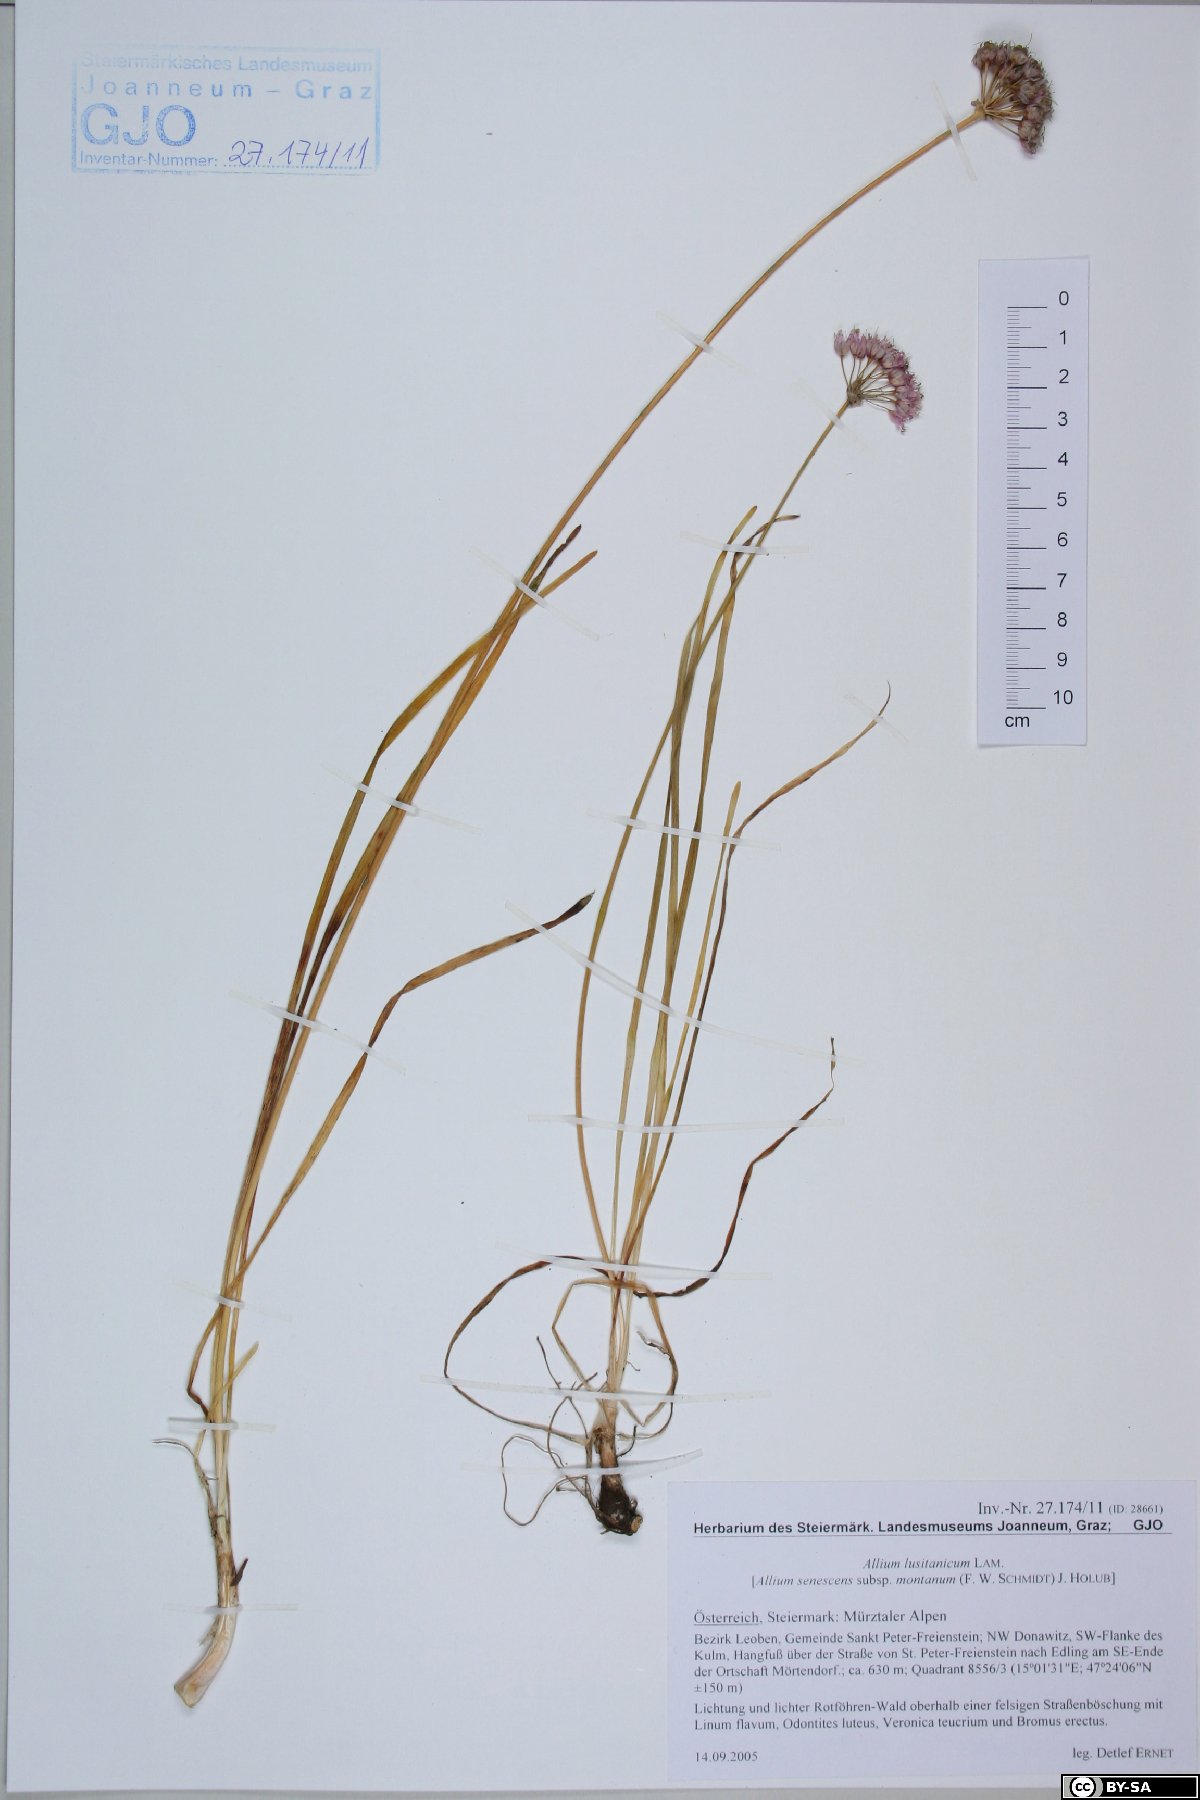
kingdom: Plantae
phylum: Tracheophyta
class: Liliopsida
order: Asparagales
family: Amaryllidaceae
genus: Allium
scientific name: Allium lusitanicum
